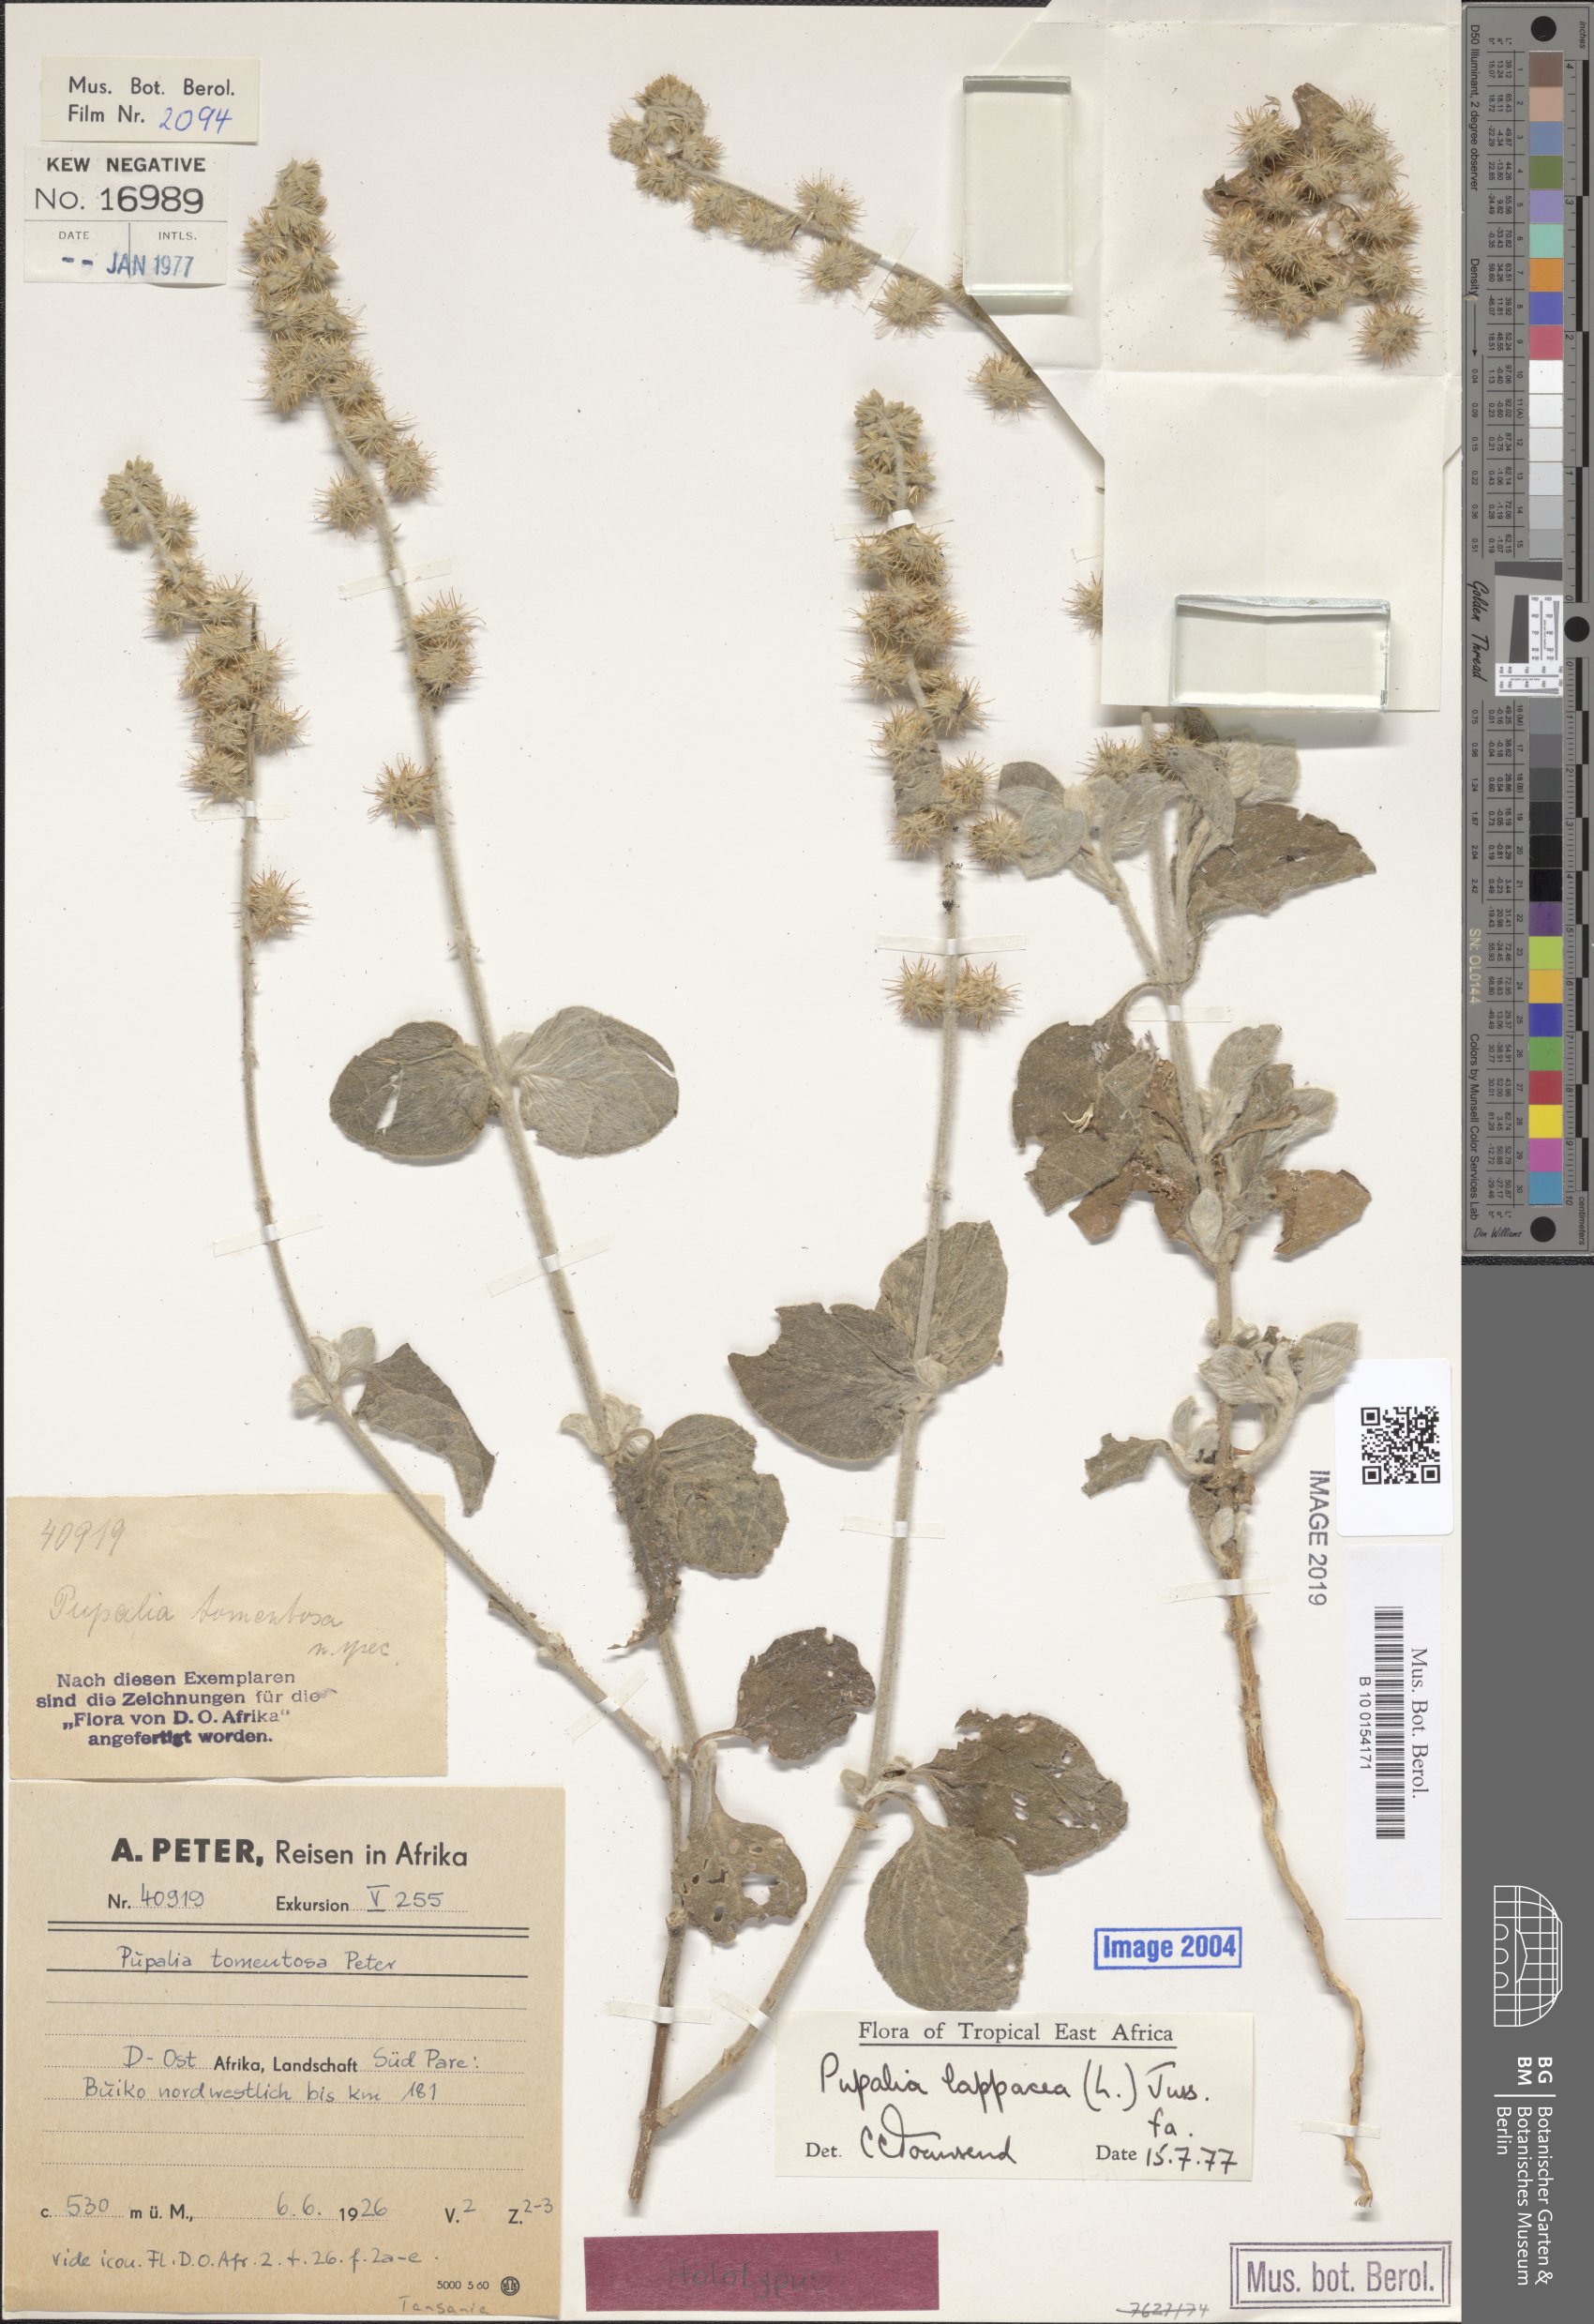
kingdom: Plantae
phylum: Tracheophyta
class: Magnoliopsida
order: Caryophyllales
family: Amaranthaceae
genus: Pupalia
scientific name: Pupalia lappacea
